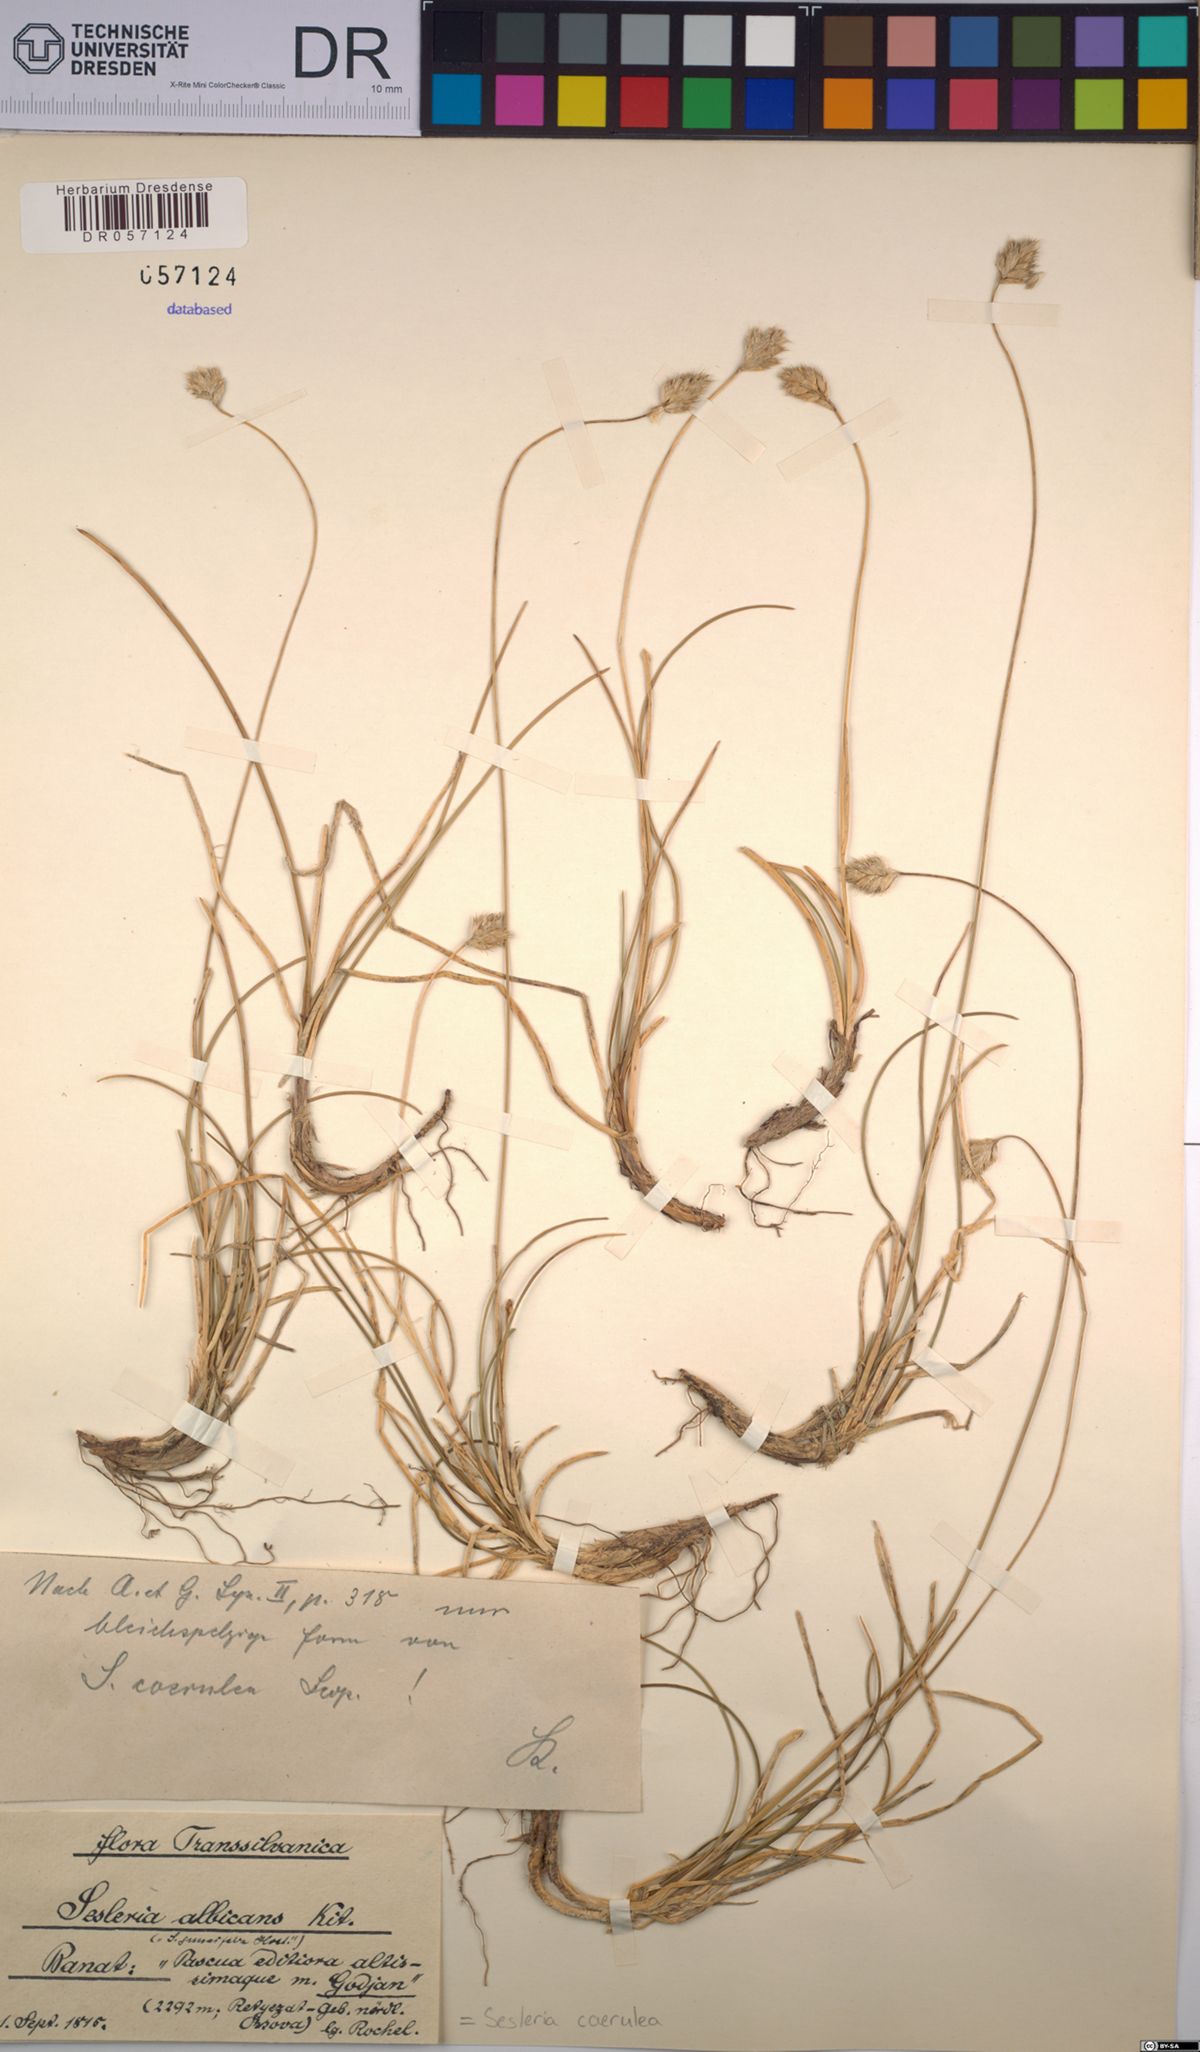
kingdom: Plantae
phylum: Tracheophyta
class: Liliopsida
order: Poales
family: Poaceae
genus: Sesleria
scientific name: Sesleria caerulea
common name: Blue moor-grass
